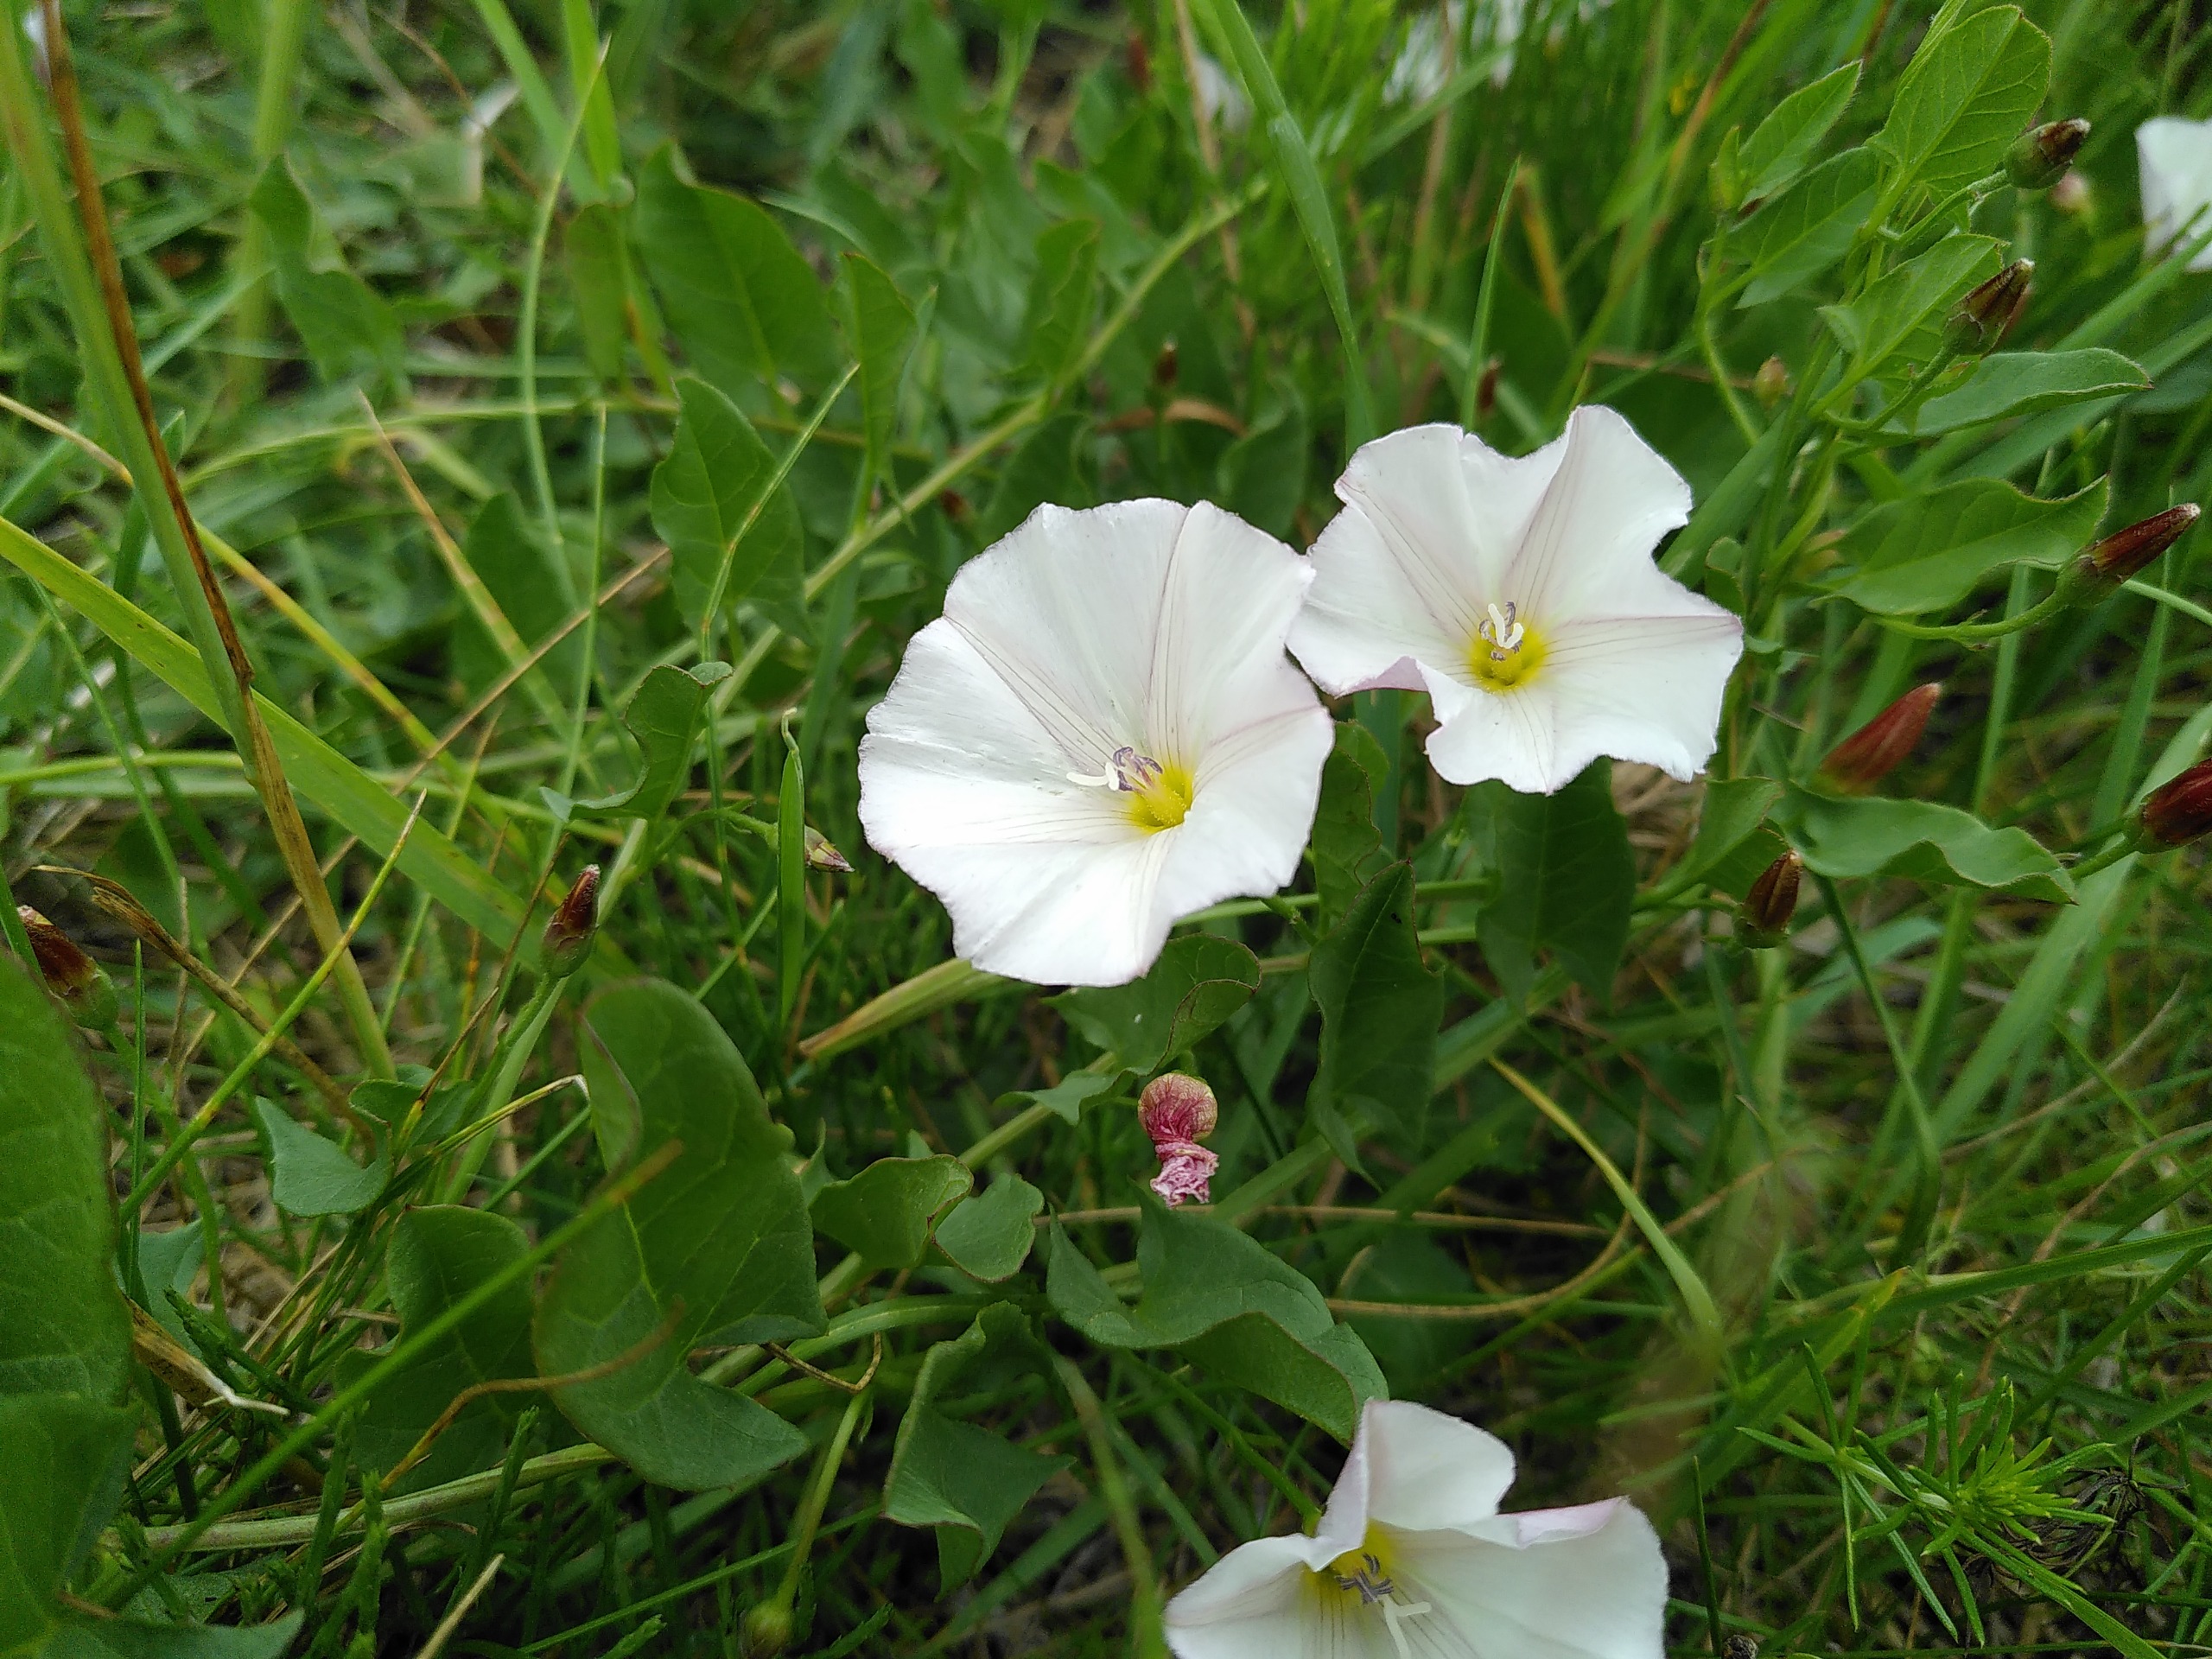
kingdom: Plantae
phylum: Tracheophyta
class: Magnoliopsida
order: Solanales
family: Convolvulaceae
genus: Convolvulus
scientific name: Convolvulus arvensis
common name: Ager-snerle
